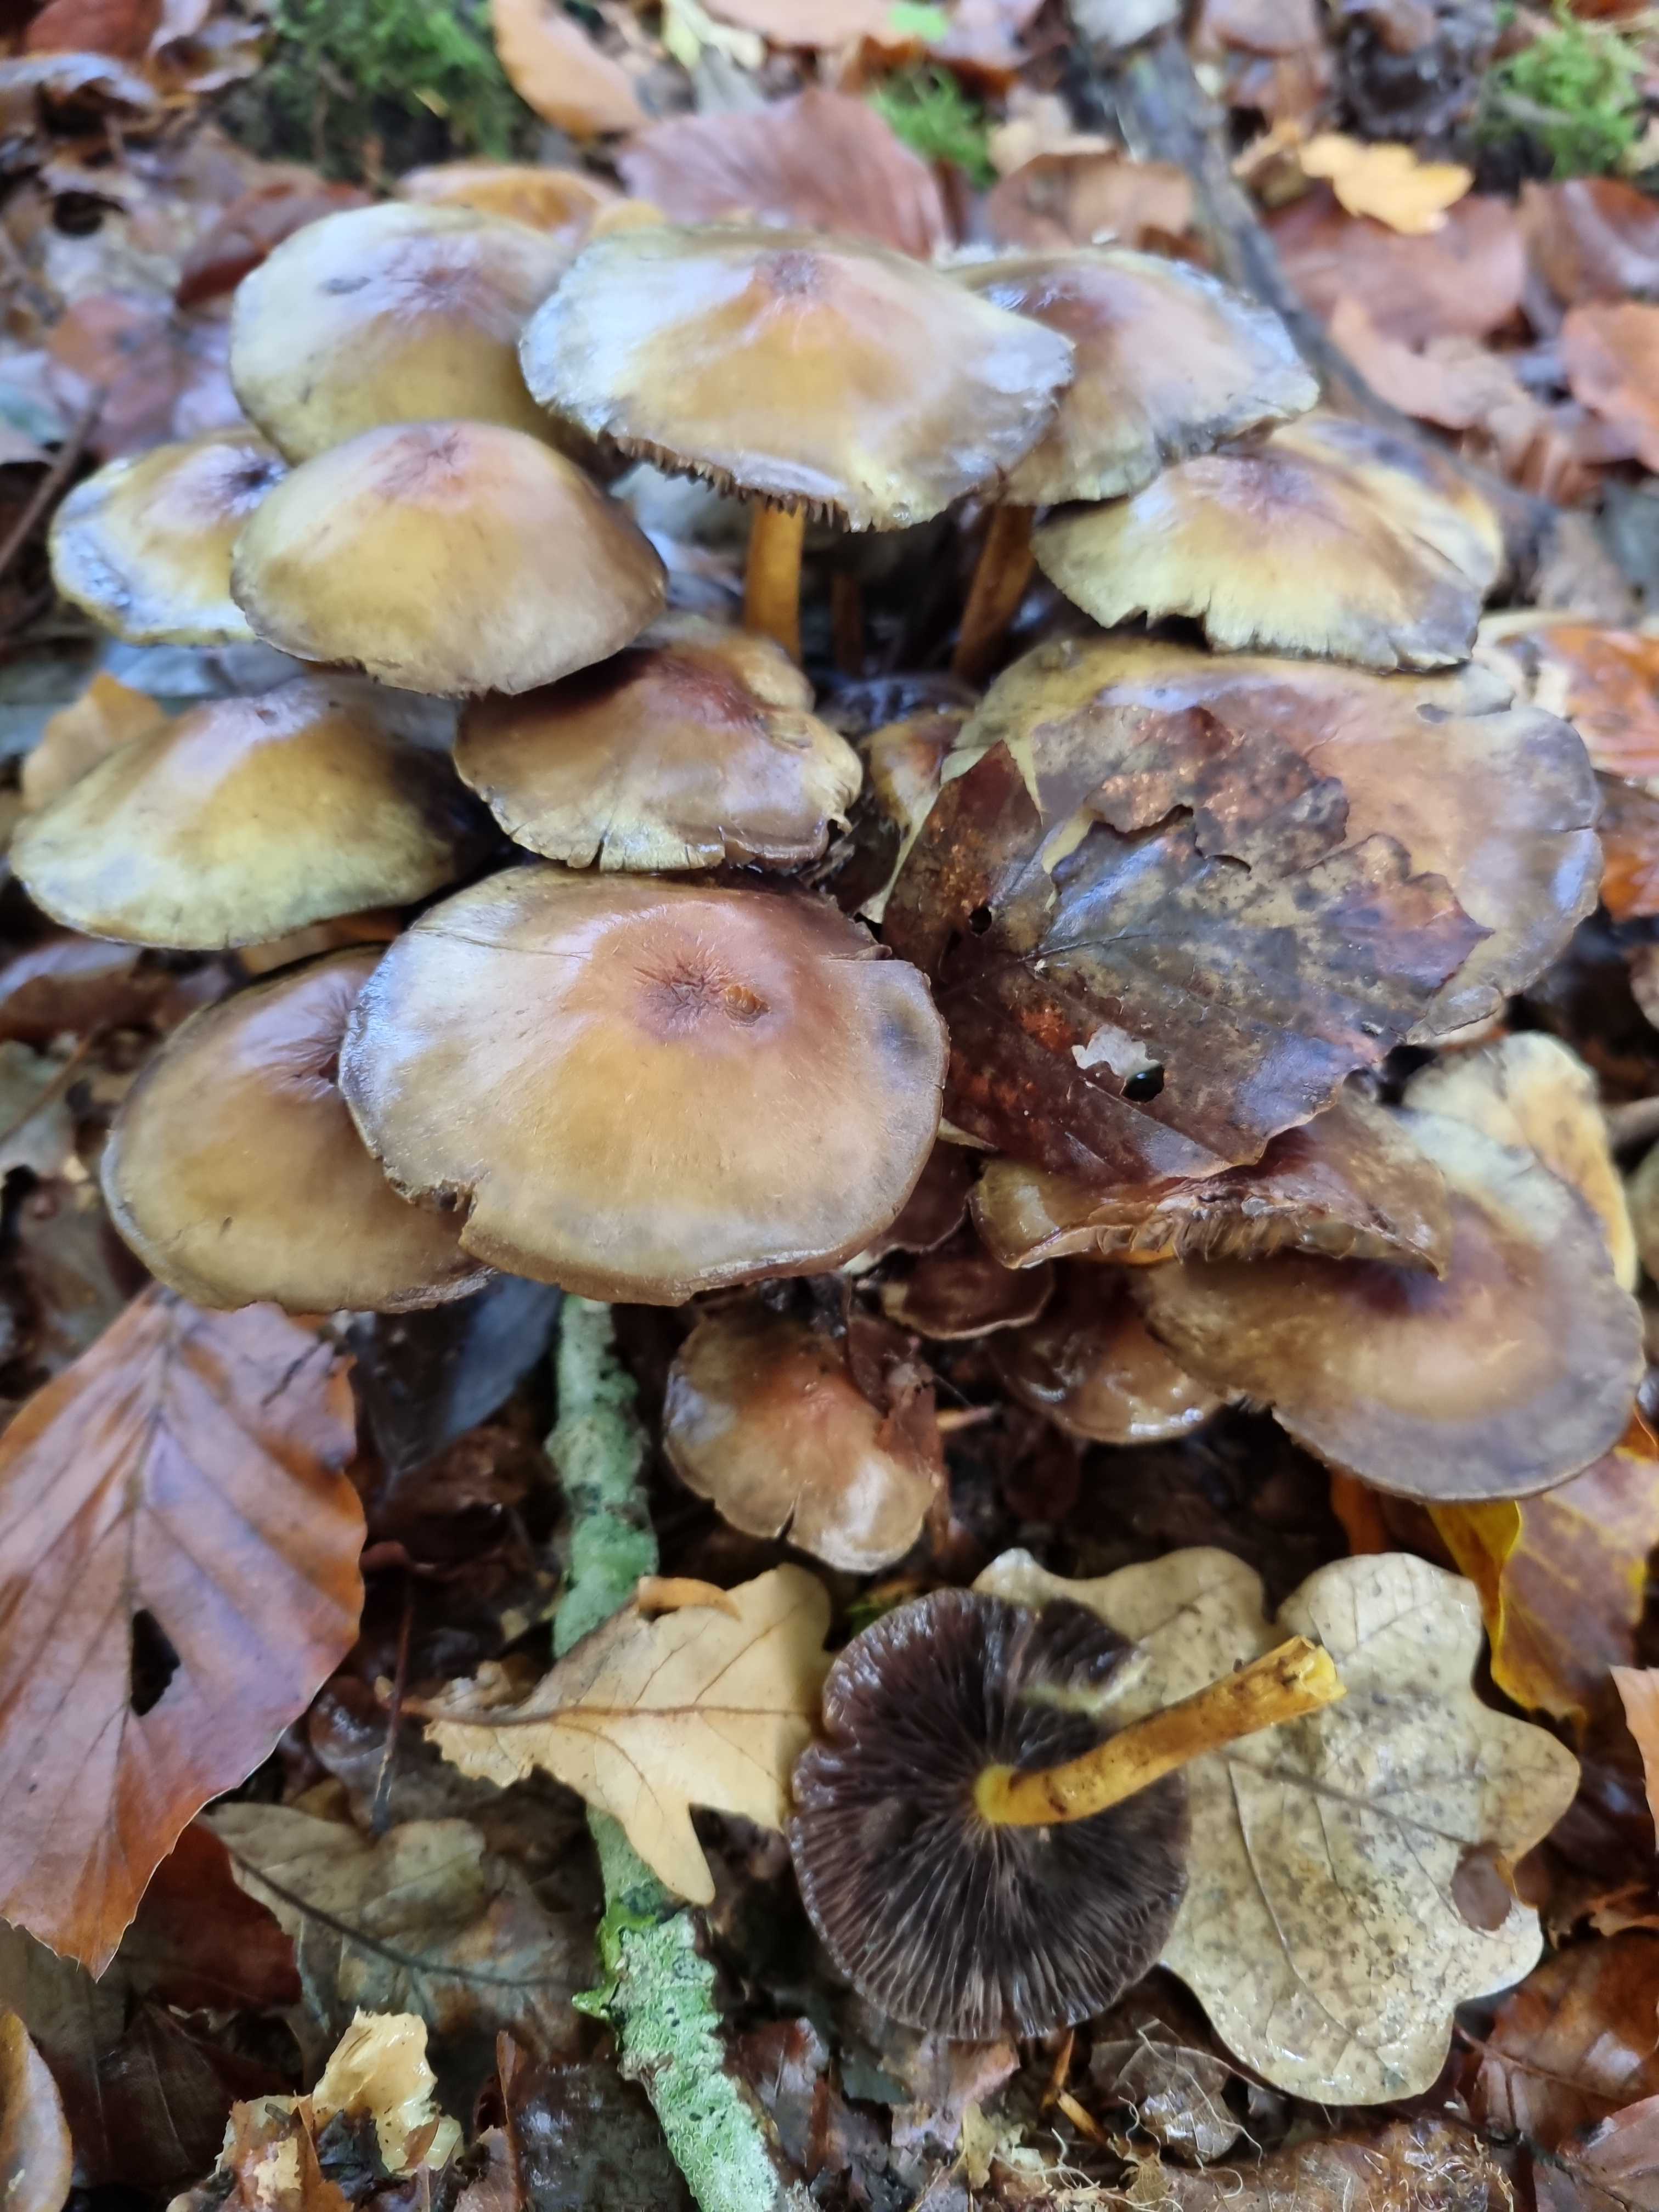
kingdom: Fungi
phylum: Basidiomycota
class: Agaricomycetes
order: Agaricales
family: Strophariaceae
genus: Hypholoma
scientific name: Hypholoma fasciculare
